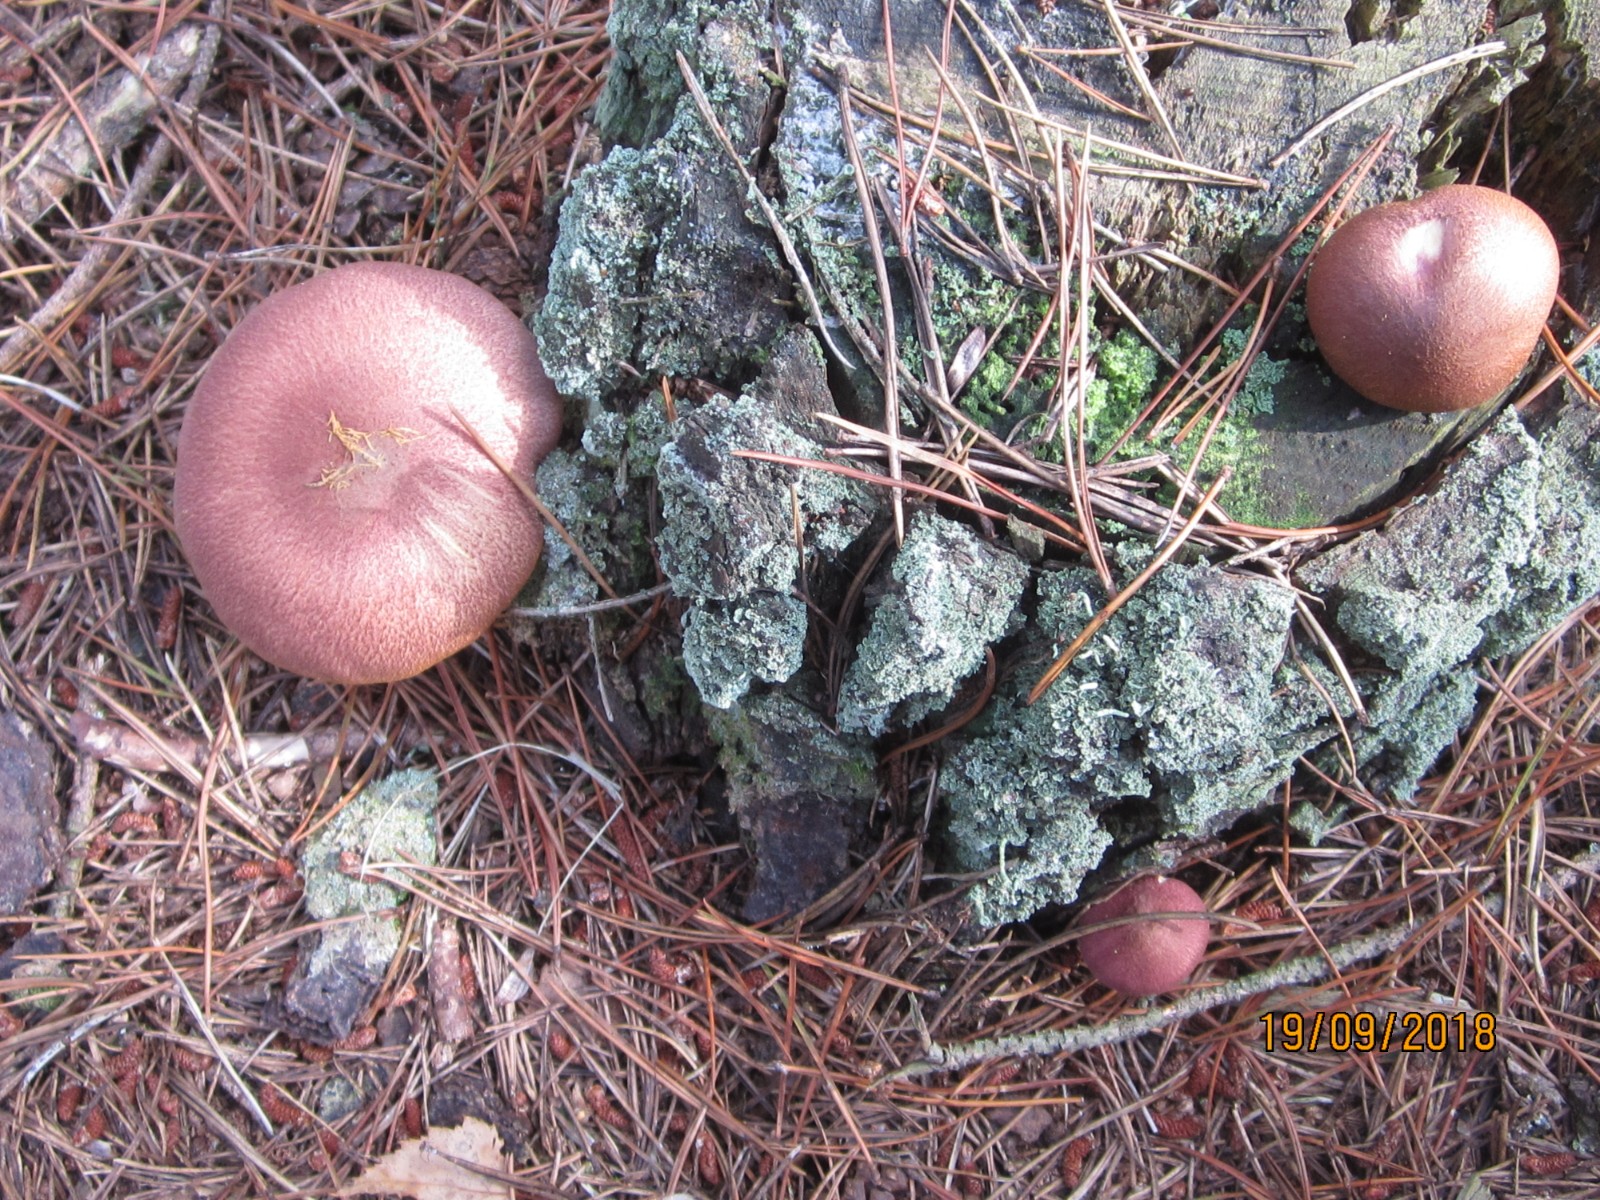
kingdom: Fungi
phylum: Basidiomycota
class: Agaricomycetes
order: Agaricales
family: Tricholomataceae
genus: Tricholomopsis
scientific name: Tricholomopsis rutilans
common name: purpur-væbnerhat
